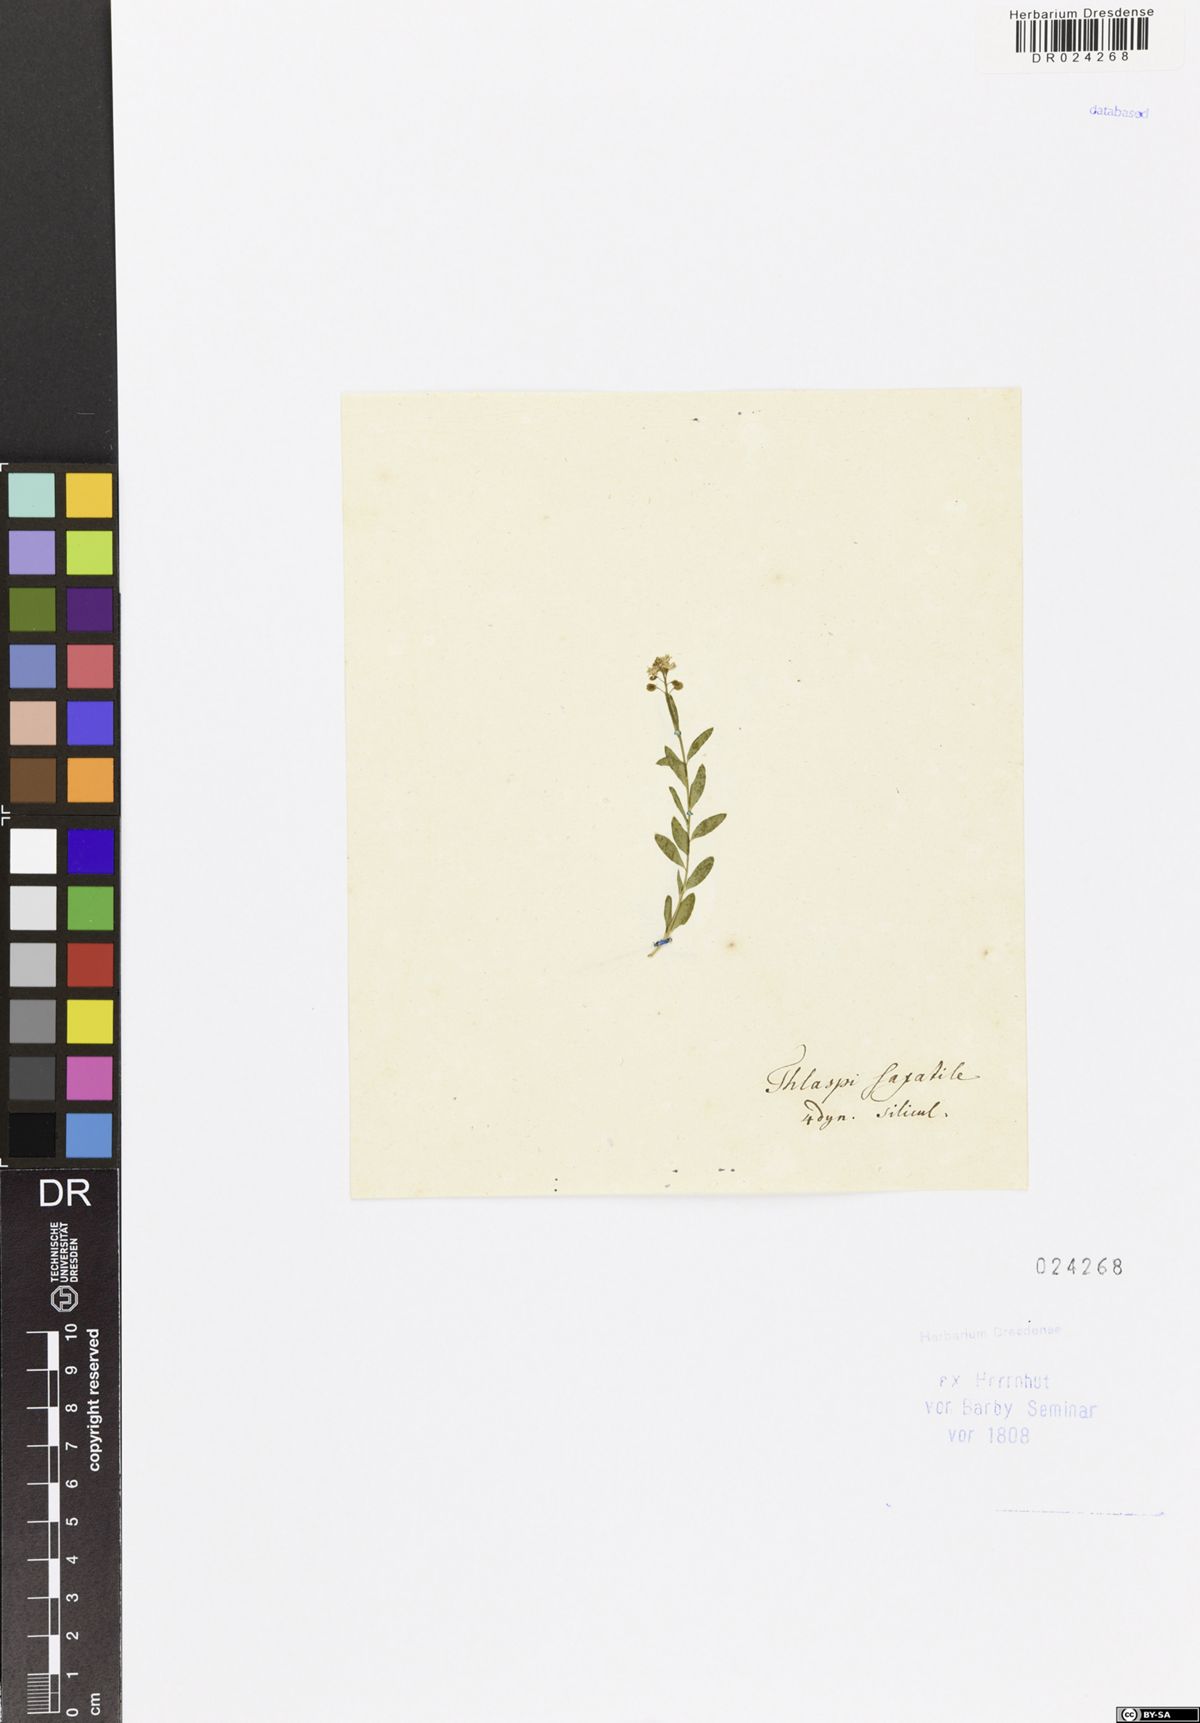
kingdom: Plantae
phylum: Tracheophyta
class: Magnoliopsida
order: Brassicales
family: Brassicaceae
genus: Aethionema
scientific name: Aethionema saxatile
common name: Burnt candytuft
